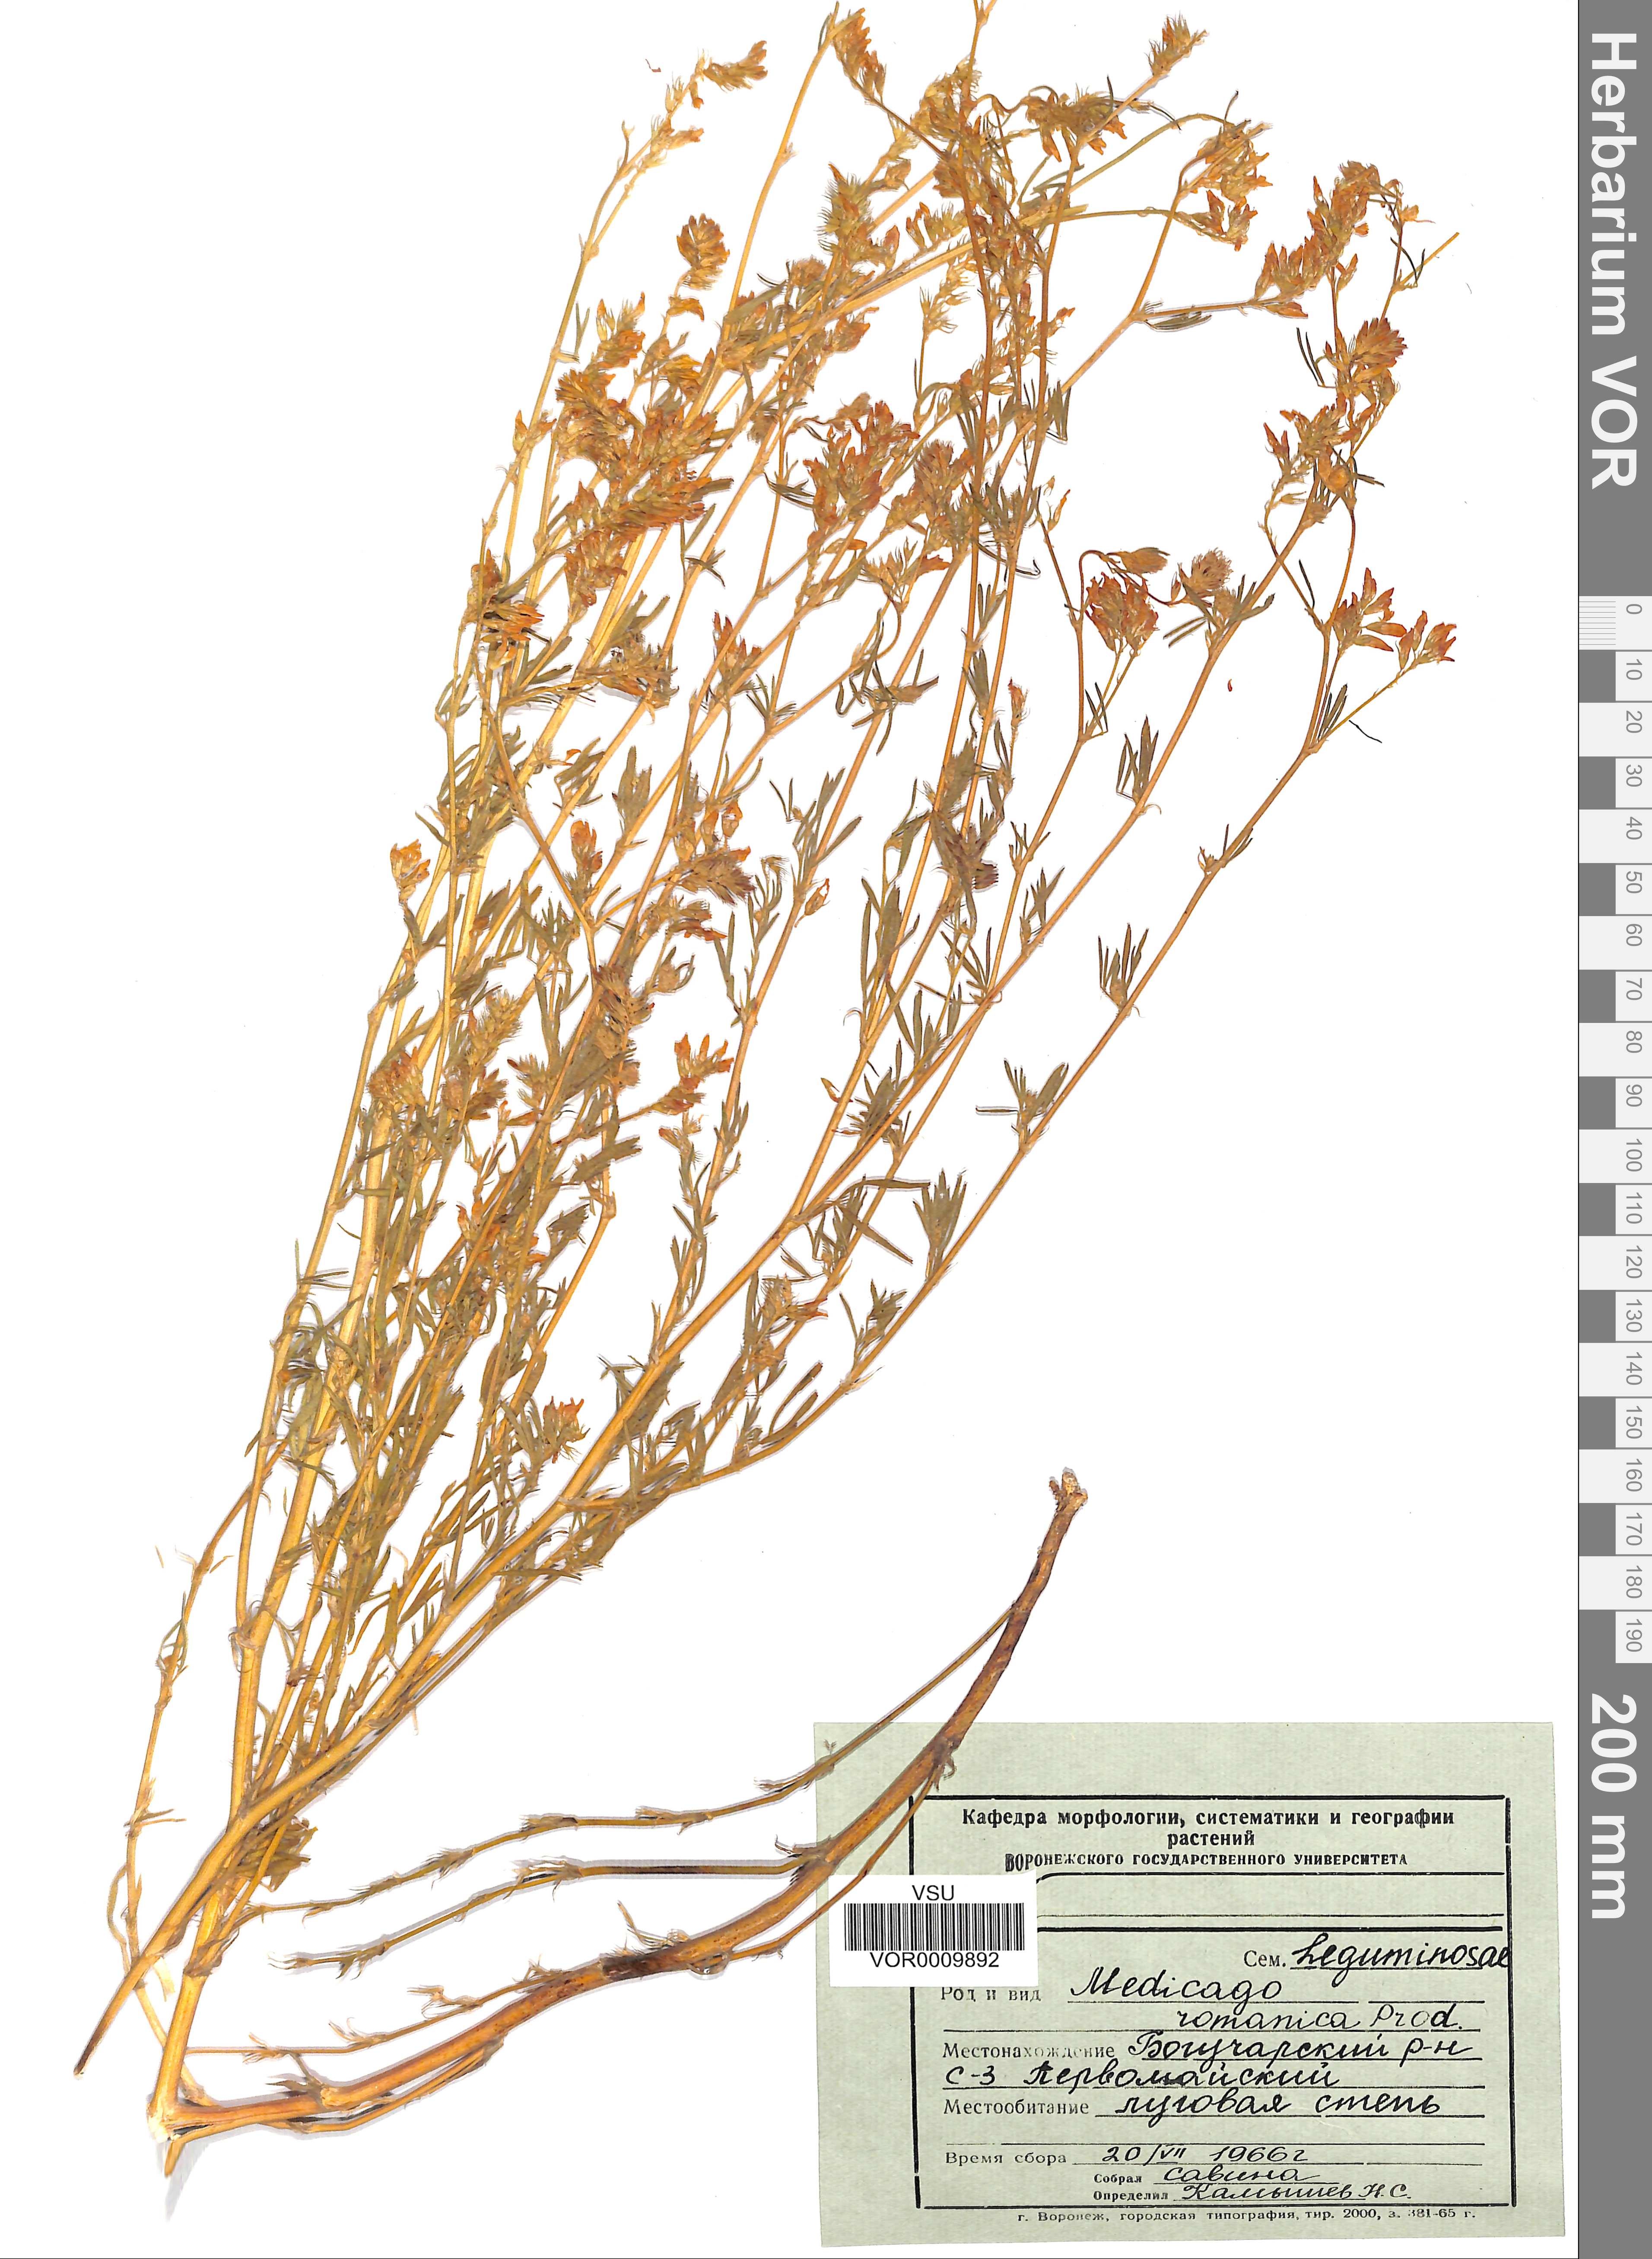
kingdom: Plantae
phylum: Tracheophyta
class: Magnoliopsida
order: Fabales
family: Fabaceae
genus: Medicago
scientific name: Medicago falcata
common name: Sickle medick
